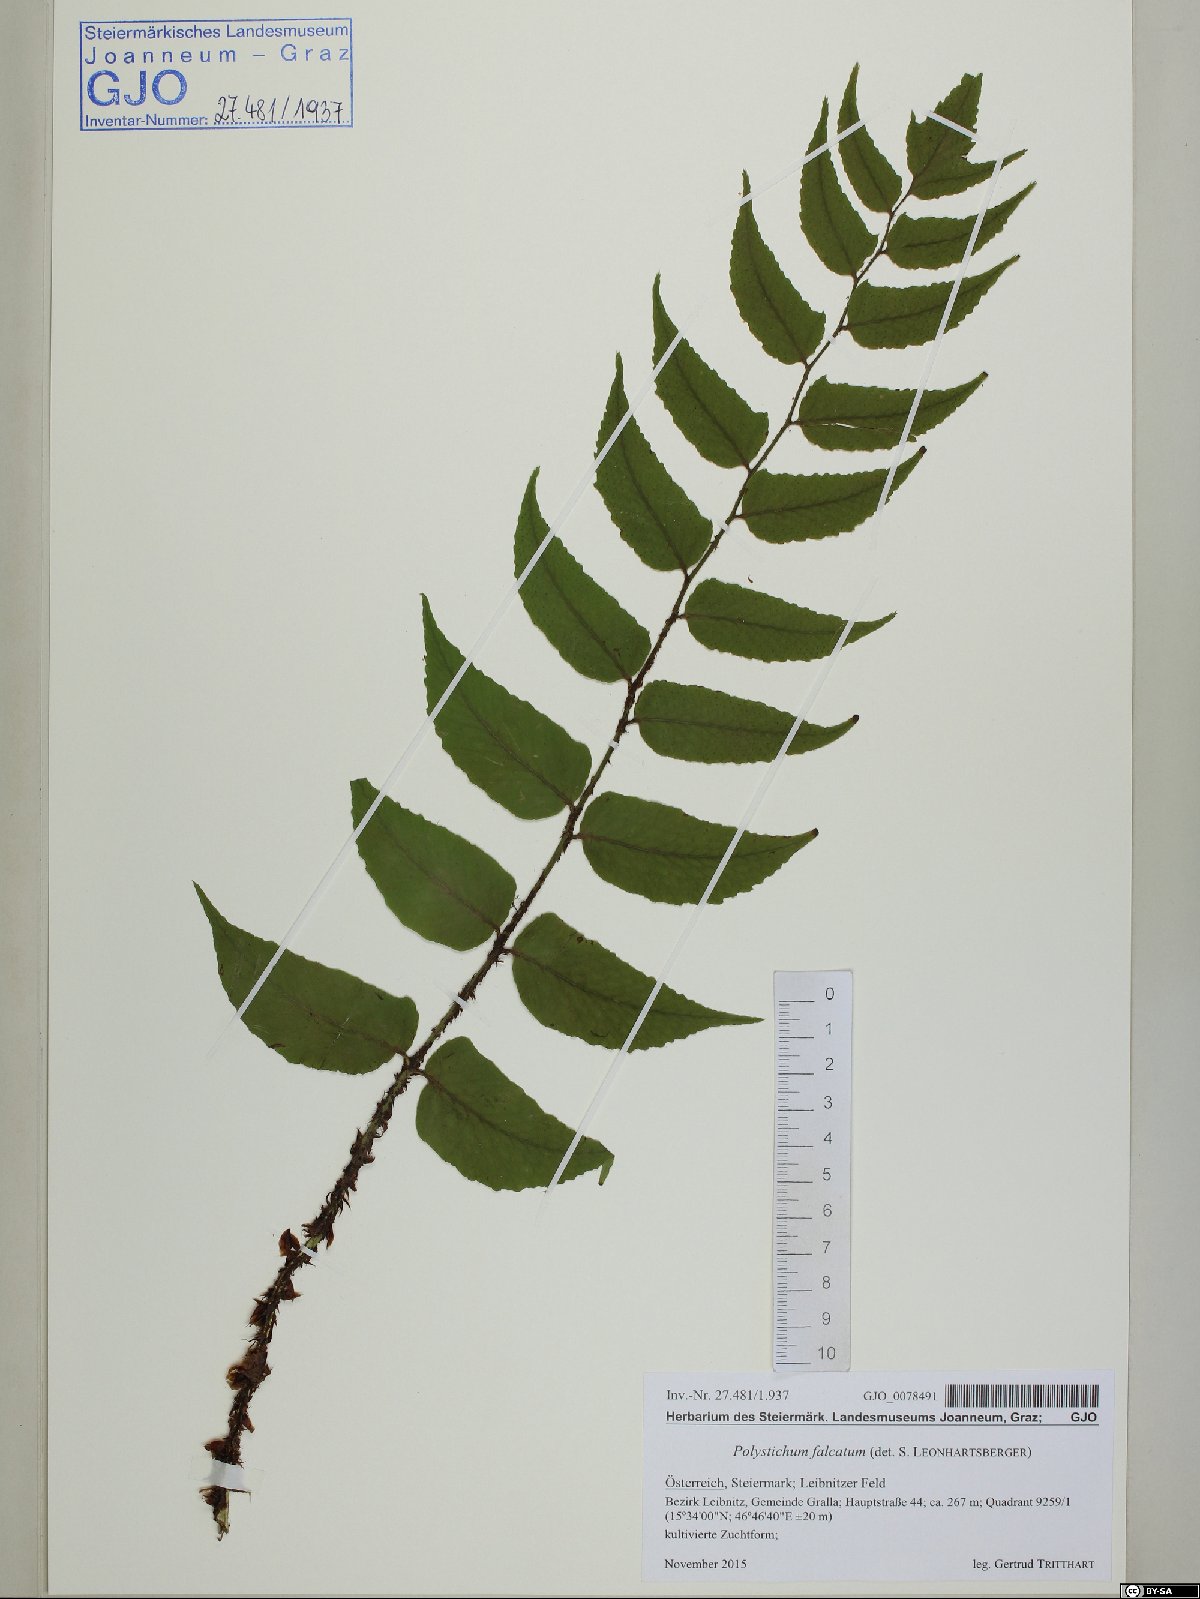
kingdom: Plantae
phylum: Tracheophyta
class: Polypodiopsida
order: Polypodiales
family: Dryopteridaceae
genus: Cyrtomium
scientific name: Cyrtomium falcatum
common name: House holly-fern
